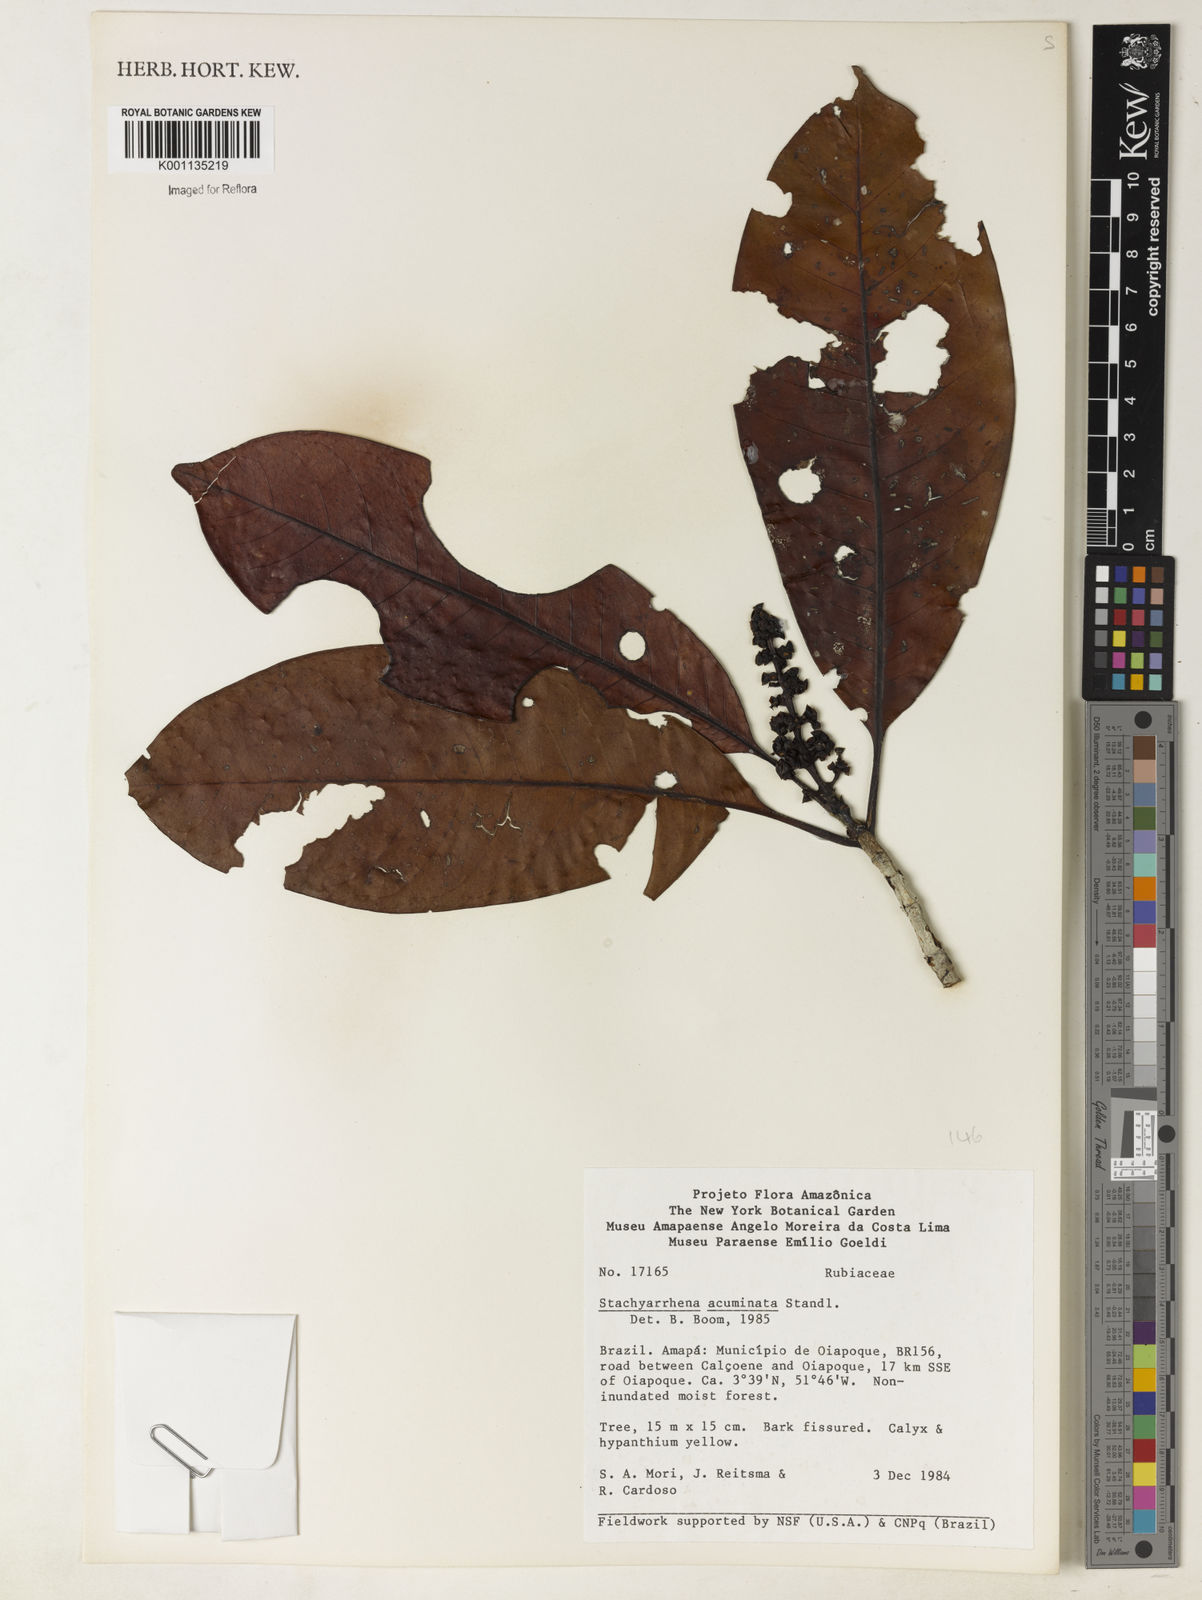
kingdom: Plantae
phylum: Tracheophyta
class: Magnoliopsida
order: Gentianales
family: Rubiaceae
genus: Stachyarrhena
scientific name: Stachyarrhena acuminata
